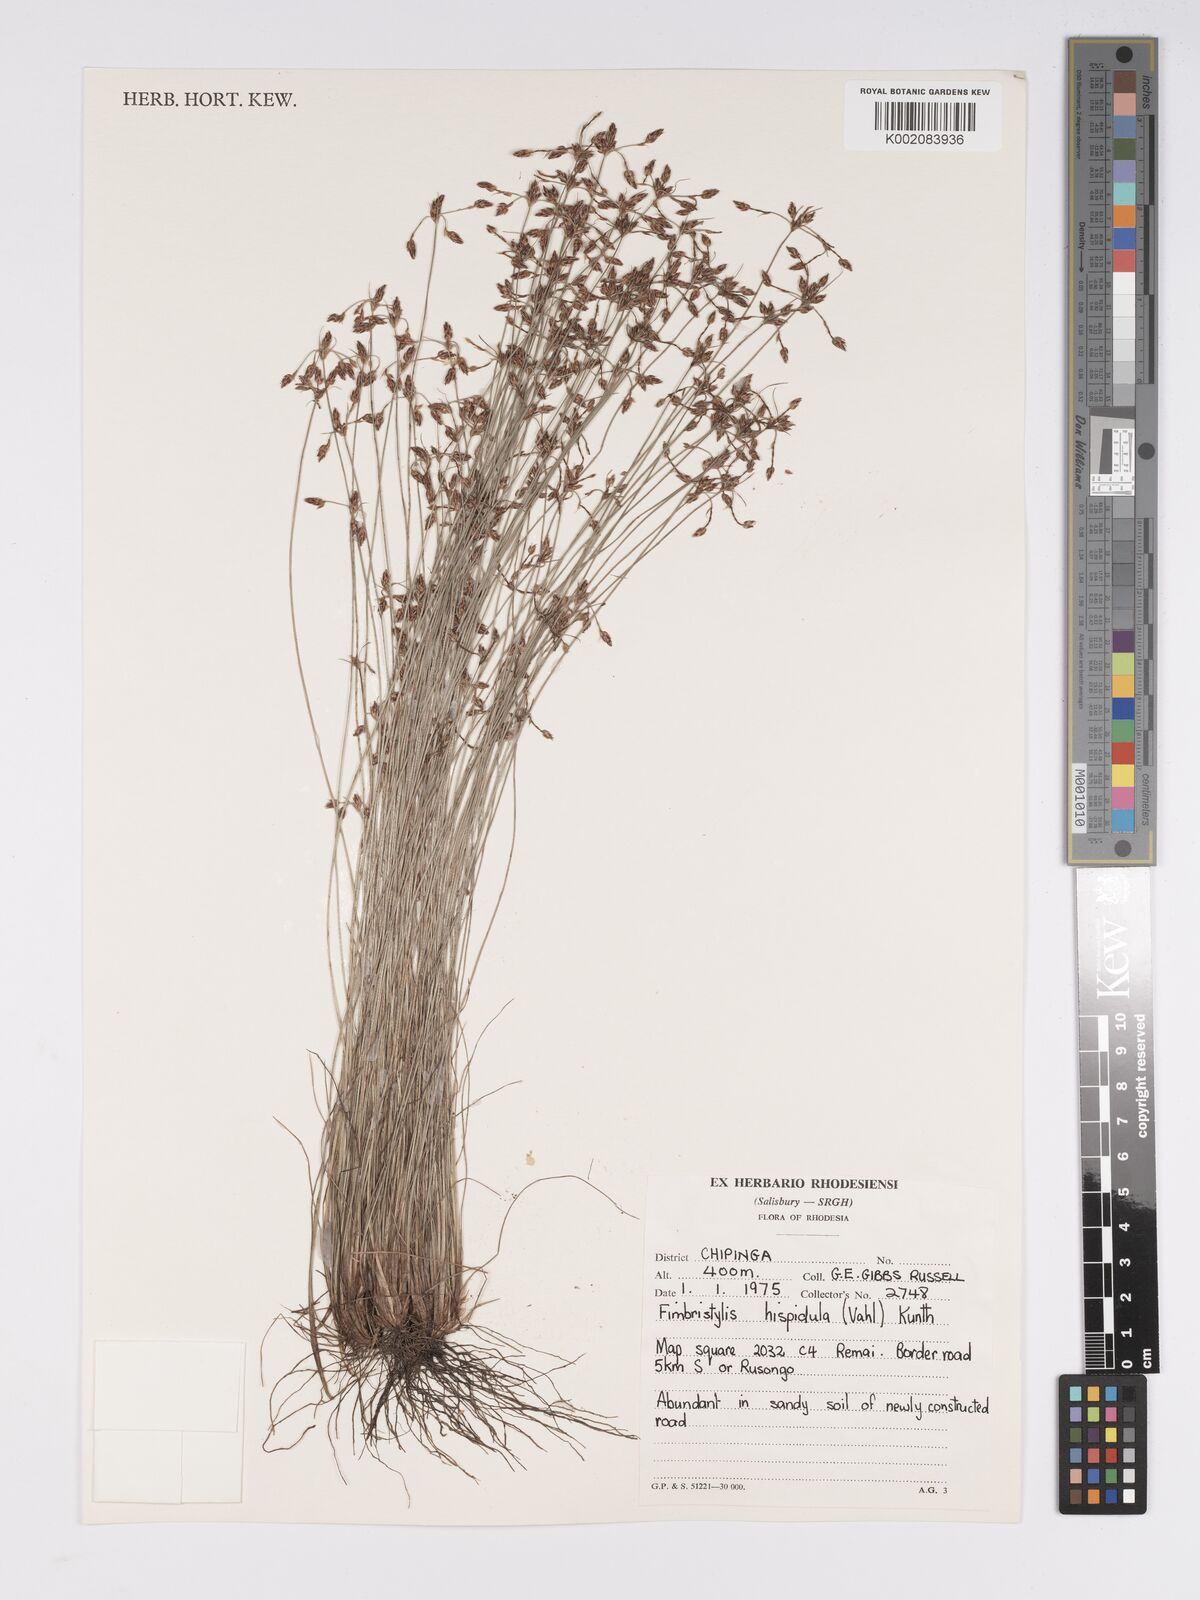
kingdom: Plantae
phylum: Tracheophyta
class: Liliopsida
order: Poales
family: Cyperaceae
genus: Bulbostylis
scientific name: Bulbostylis hispidula
